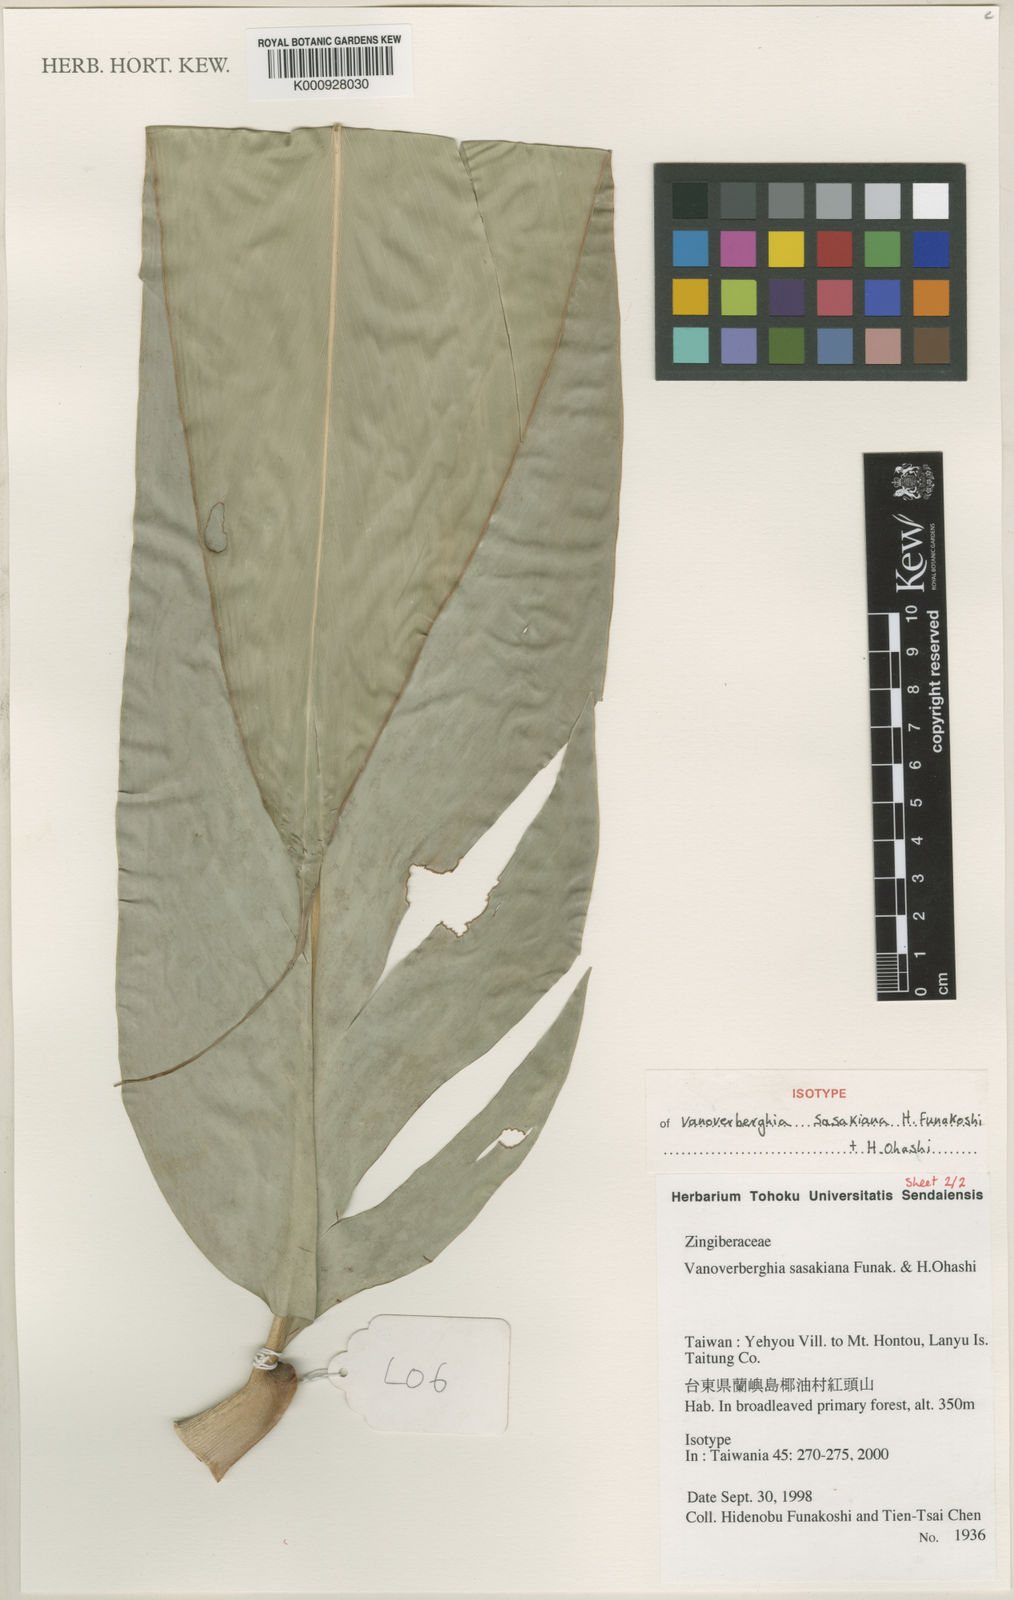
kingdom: Plantae
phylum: Tracheophyta
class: Liliopsida
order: Zingiberales
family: Zingiberaceae
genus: Vanoverberghia
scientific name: Vanoverberghia sasakiana
